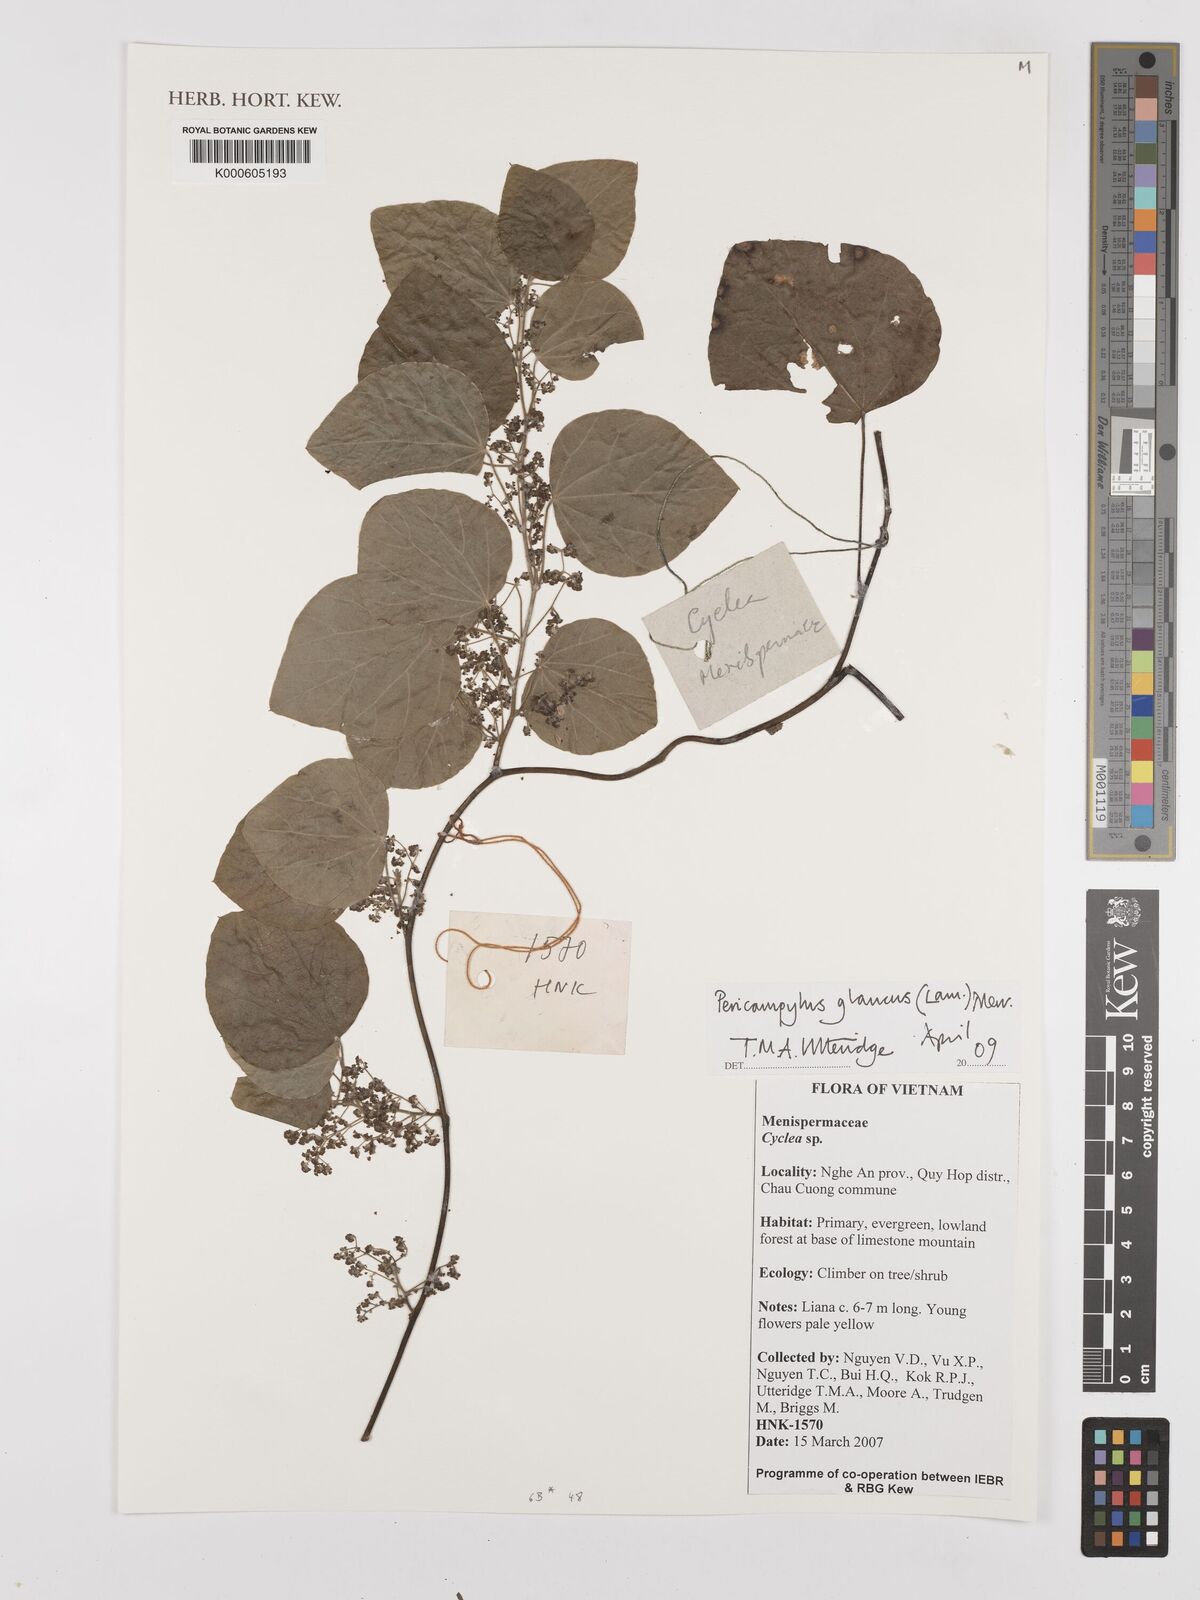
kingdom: Plantae
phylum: Tracheophyta
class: Magnoliopsida
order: Ranunculales
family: Menispermaceae
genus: Pericampylus
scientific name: Pericampylus glaucus
